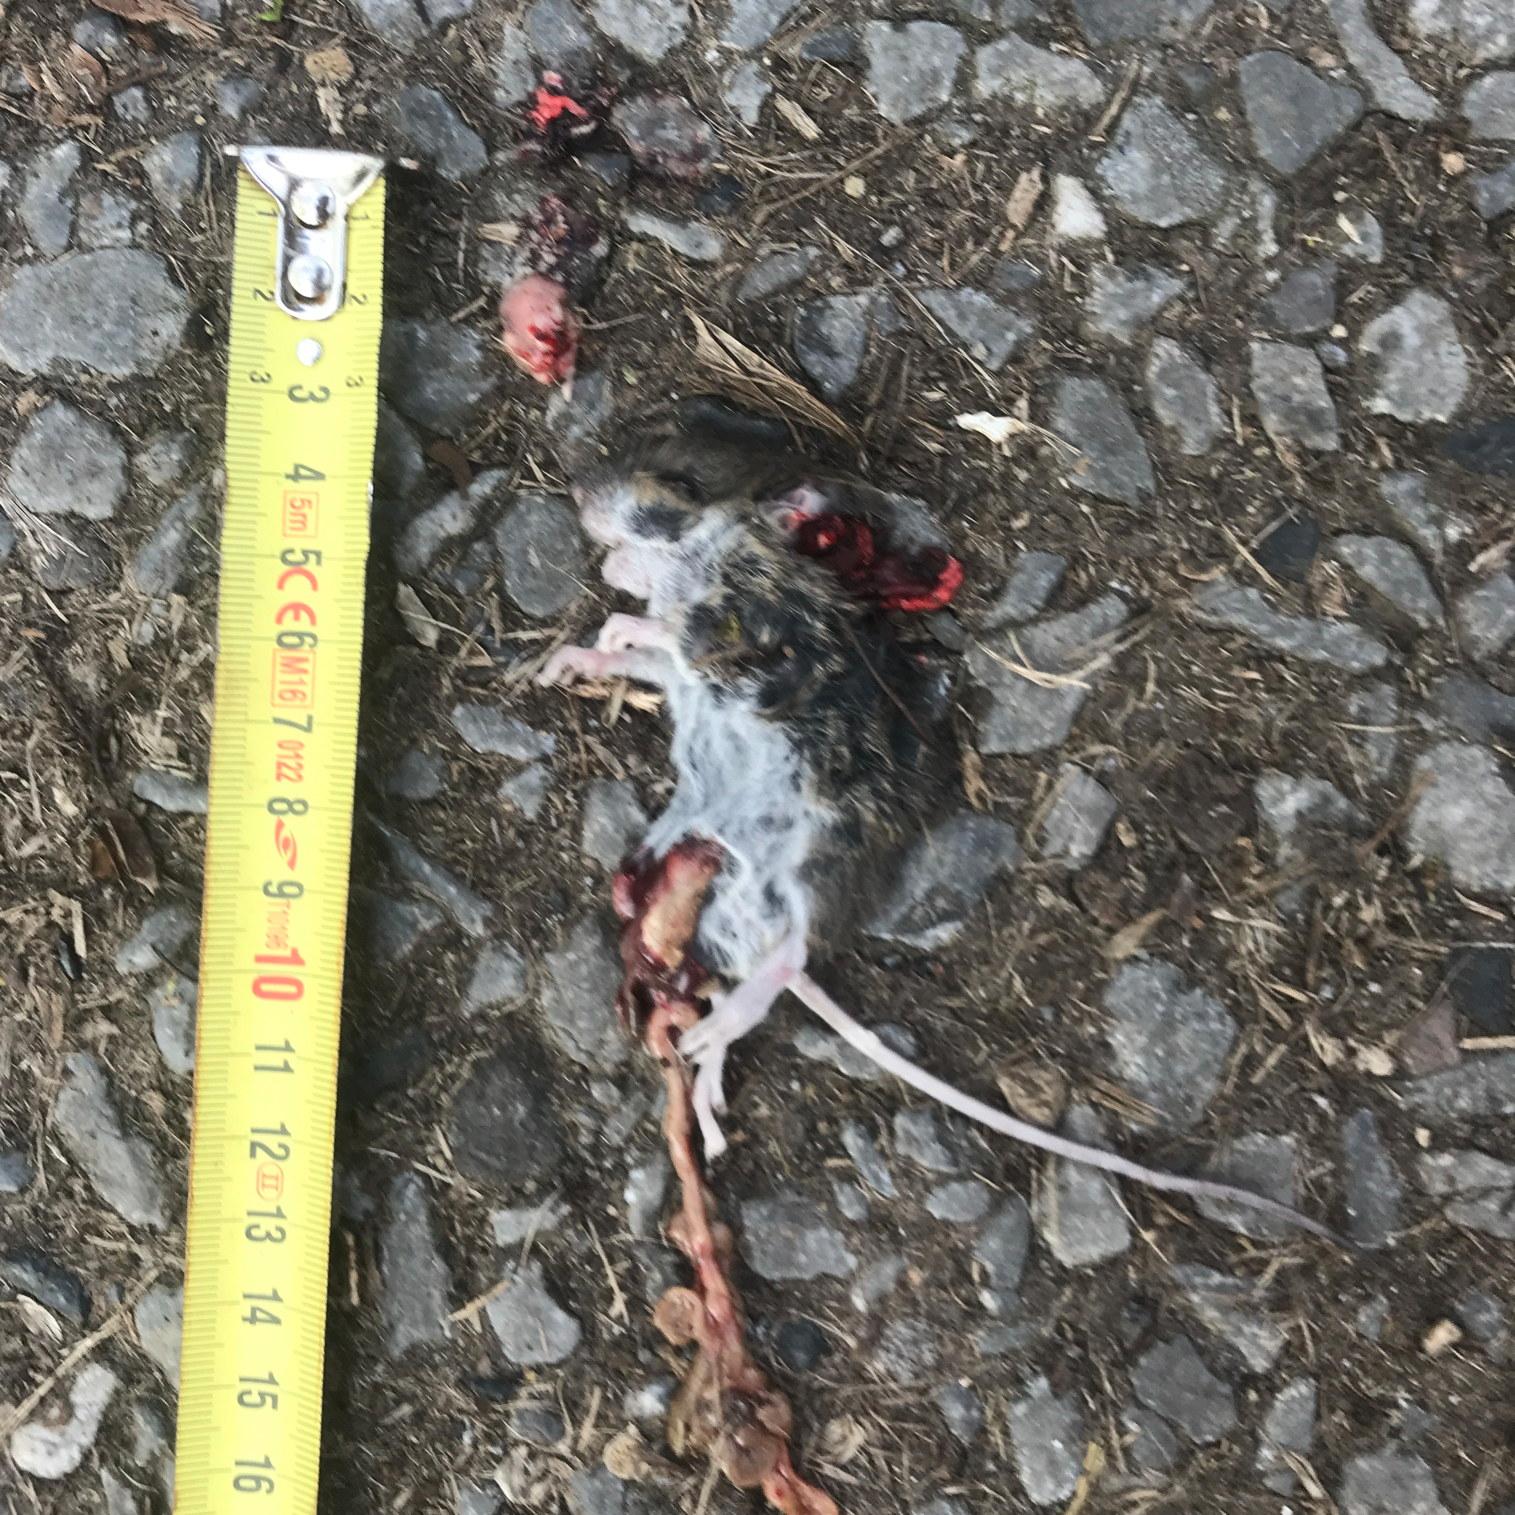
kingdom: Animalia
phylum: Chordata
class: Mammalia
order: Rodentia
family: Muridae
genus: Apodemus
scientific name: Apodemus
